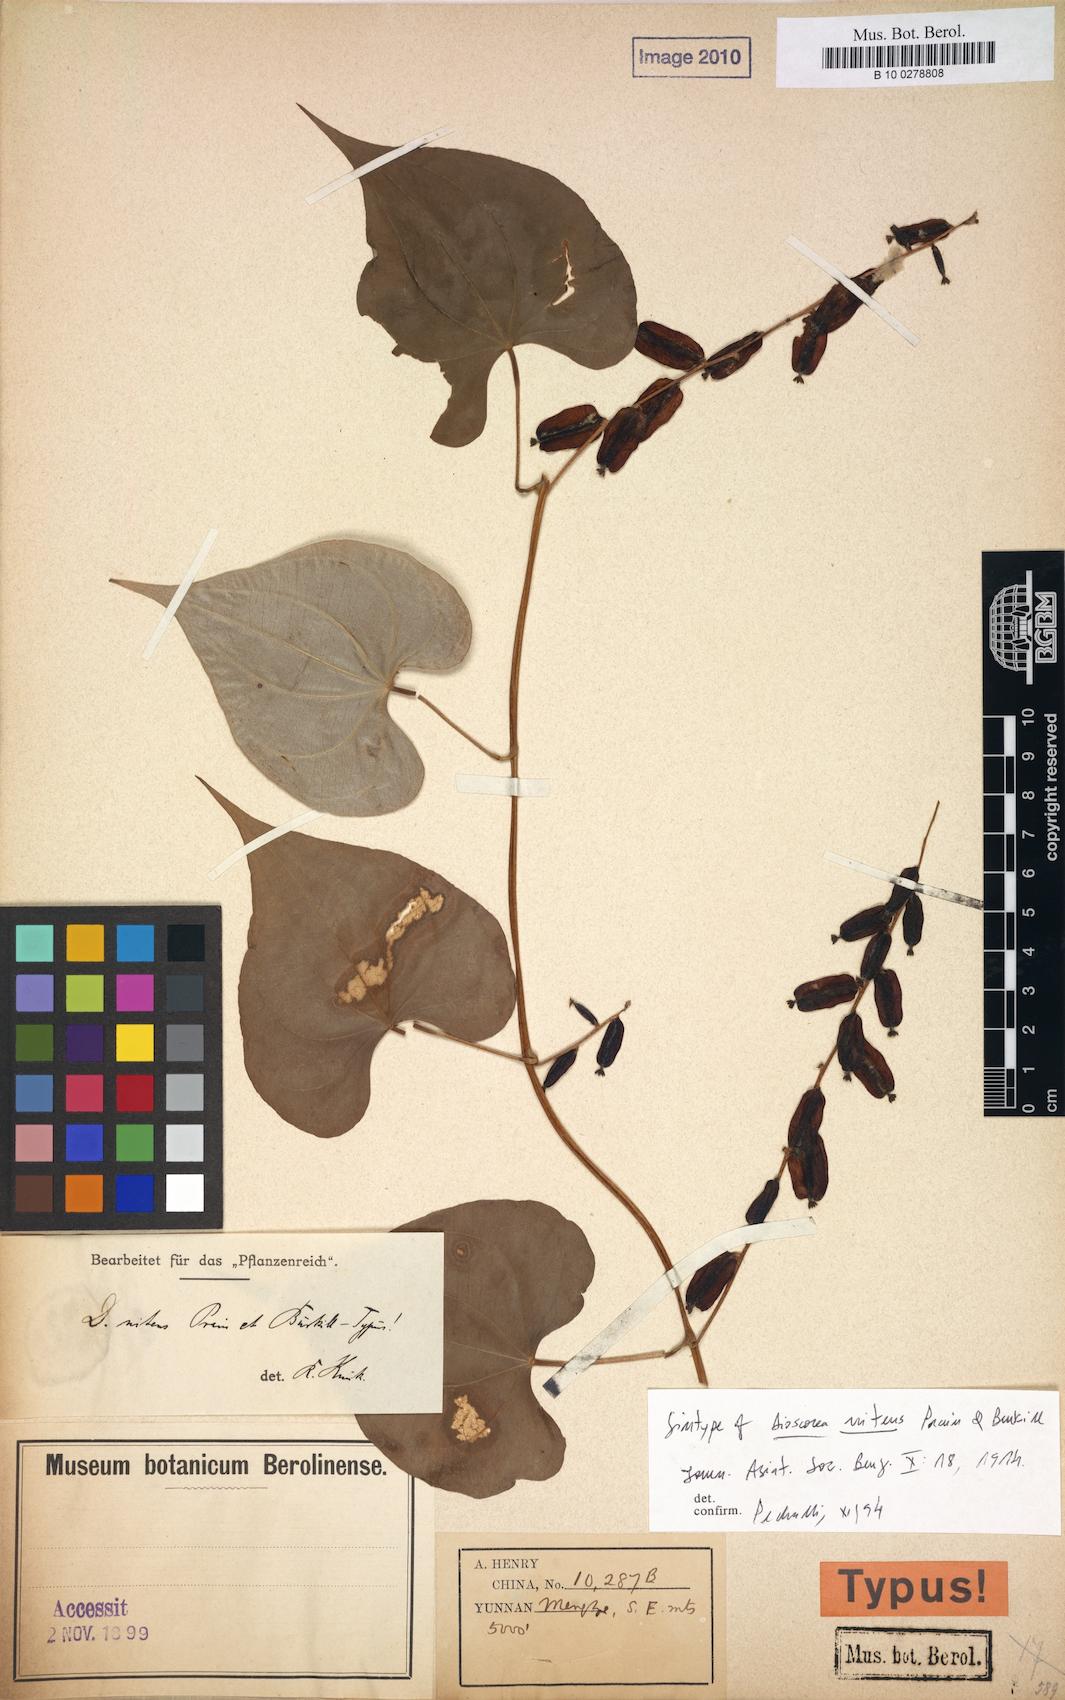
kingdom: Plantae
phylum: Tracheophyta
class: Liliopsida
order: Dioscoreales
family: Dioscoreaceae
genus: Dioscorea
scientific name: Dioscorea nitens
